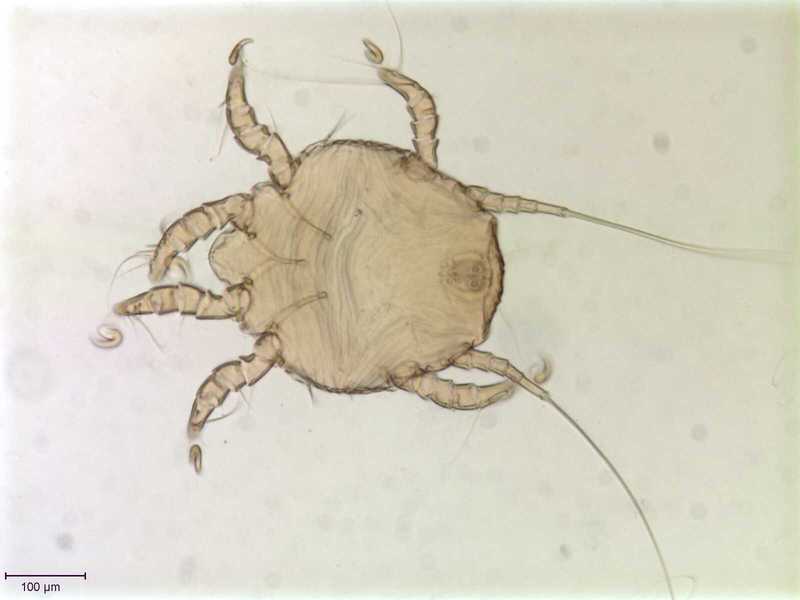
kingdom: Animalia
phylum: Arthropoda
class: Arachnida
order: Sarcoptiformes
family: Chaetodactylidae
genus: Sennertia
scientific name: Sennertia vitzthumi
